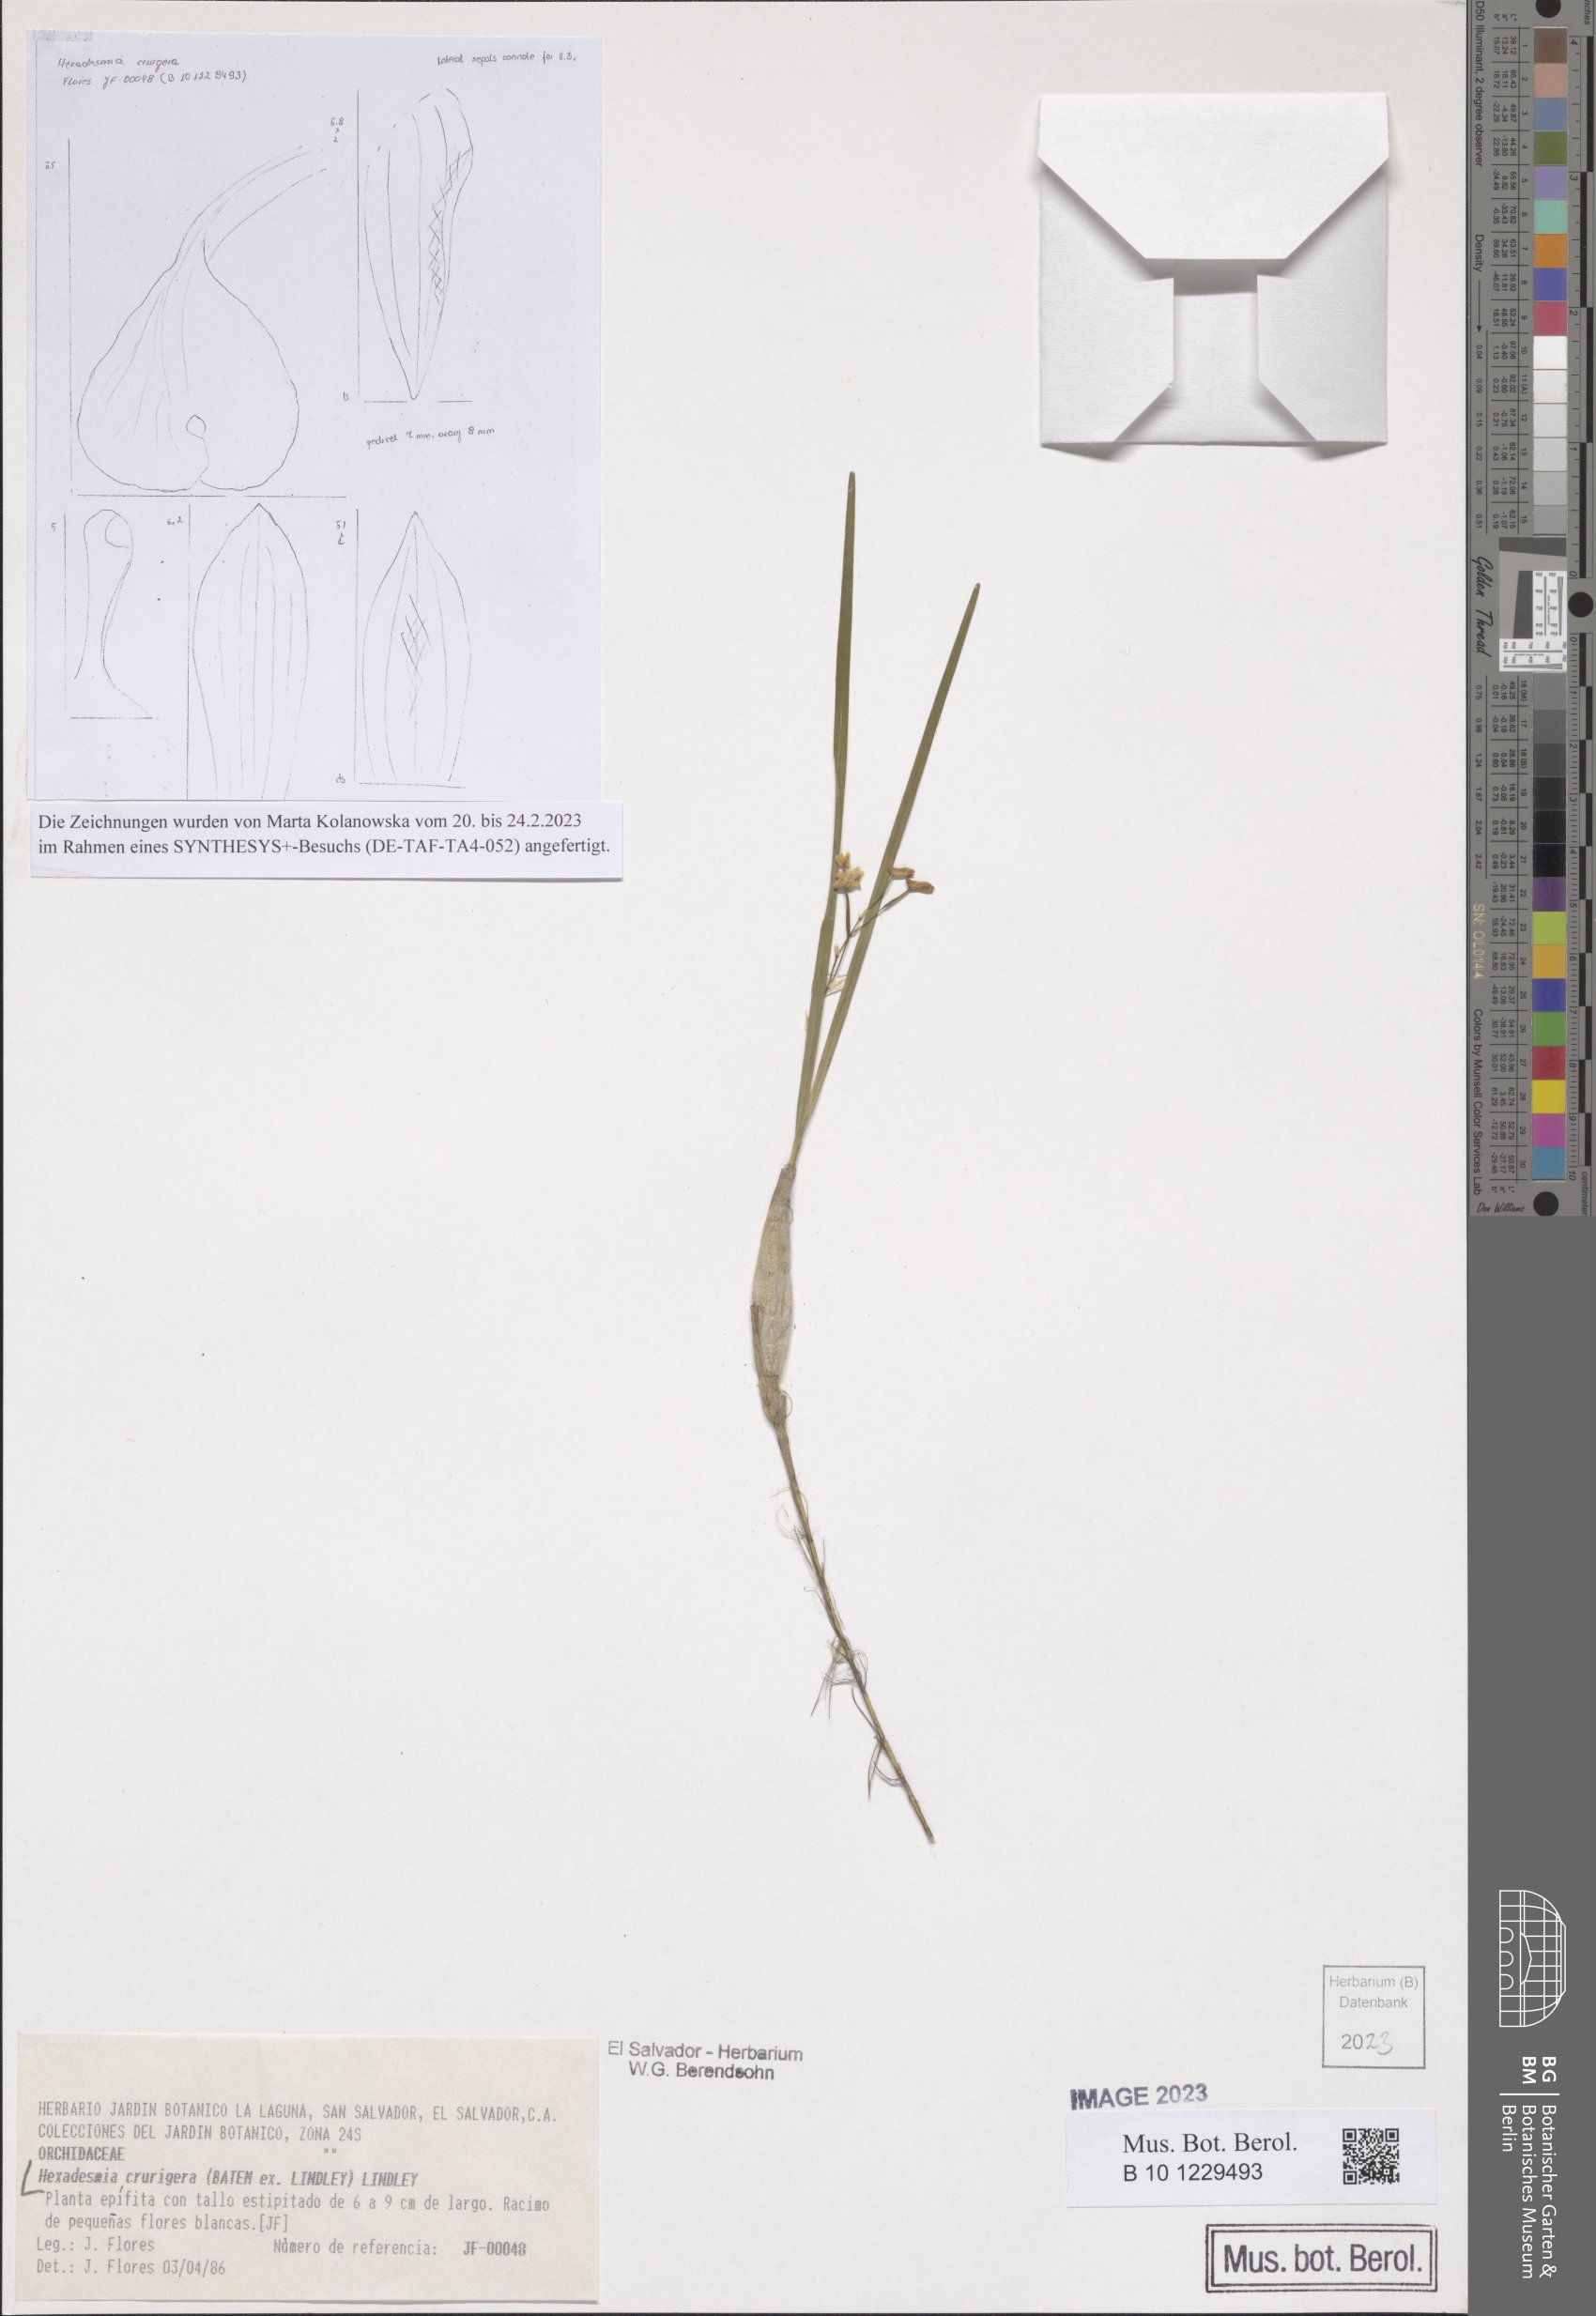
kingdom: Plantae
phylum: Tracheophyta
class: Liliopsida
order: Asparagales
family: Orchidaceae
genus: Scaphyglottis
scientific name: Scaphyglottis crurigera
